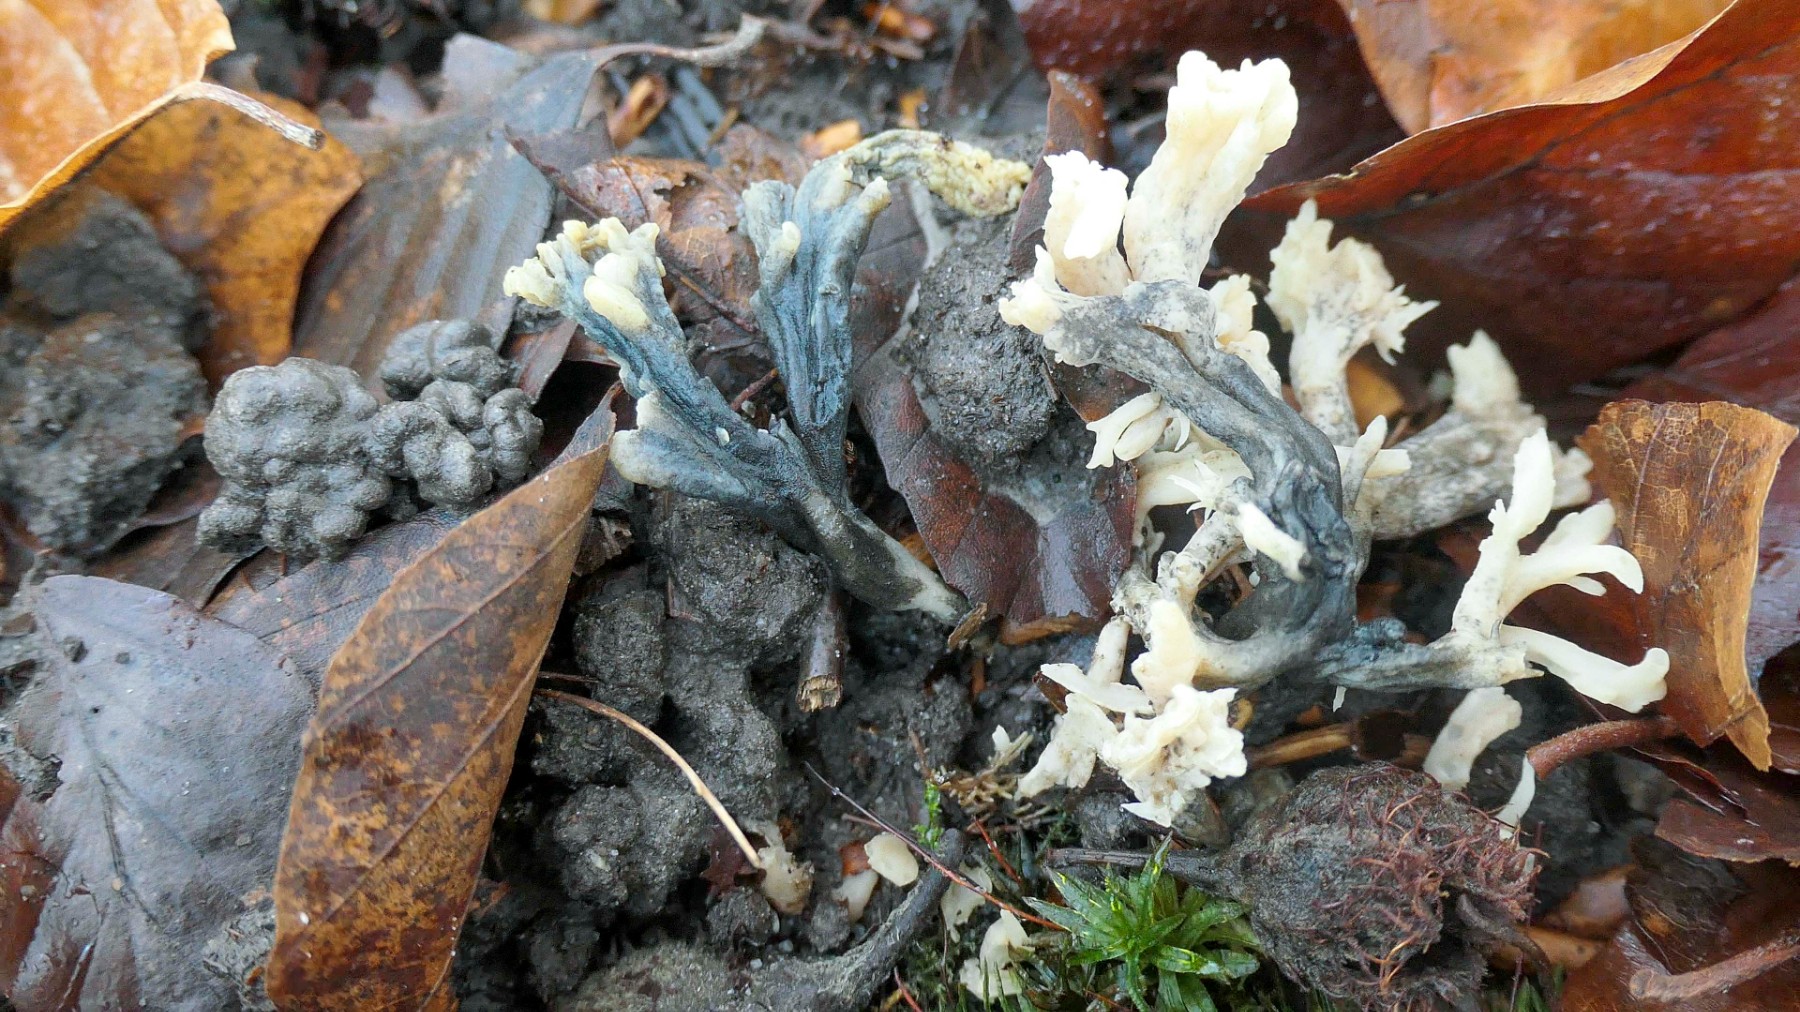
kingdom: Fungi
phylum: Ascomycota
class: Sordariomycetes
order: Sordariales
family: Helminthosphaeriaceae
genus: Helminthosphaeria
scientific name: Helminthosphaeria clavariarum
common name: trold-svampesnyltekerne
